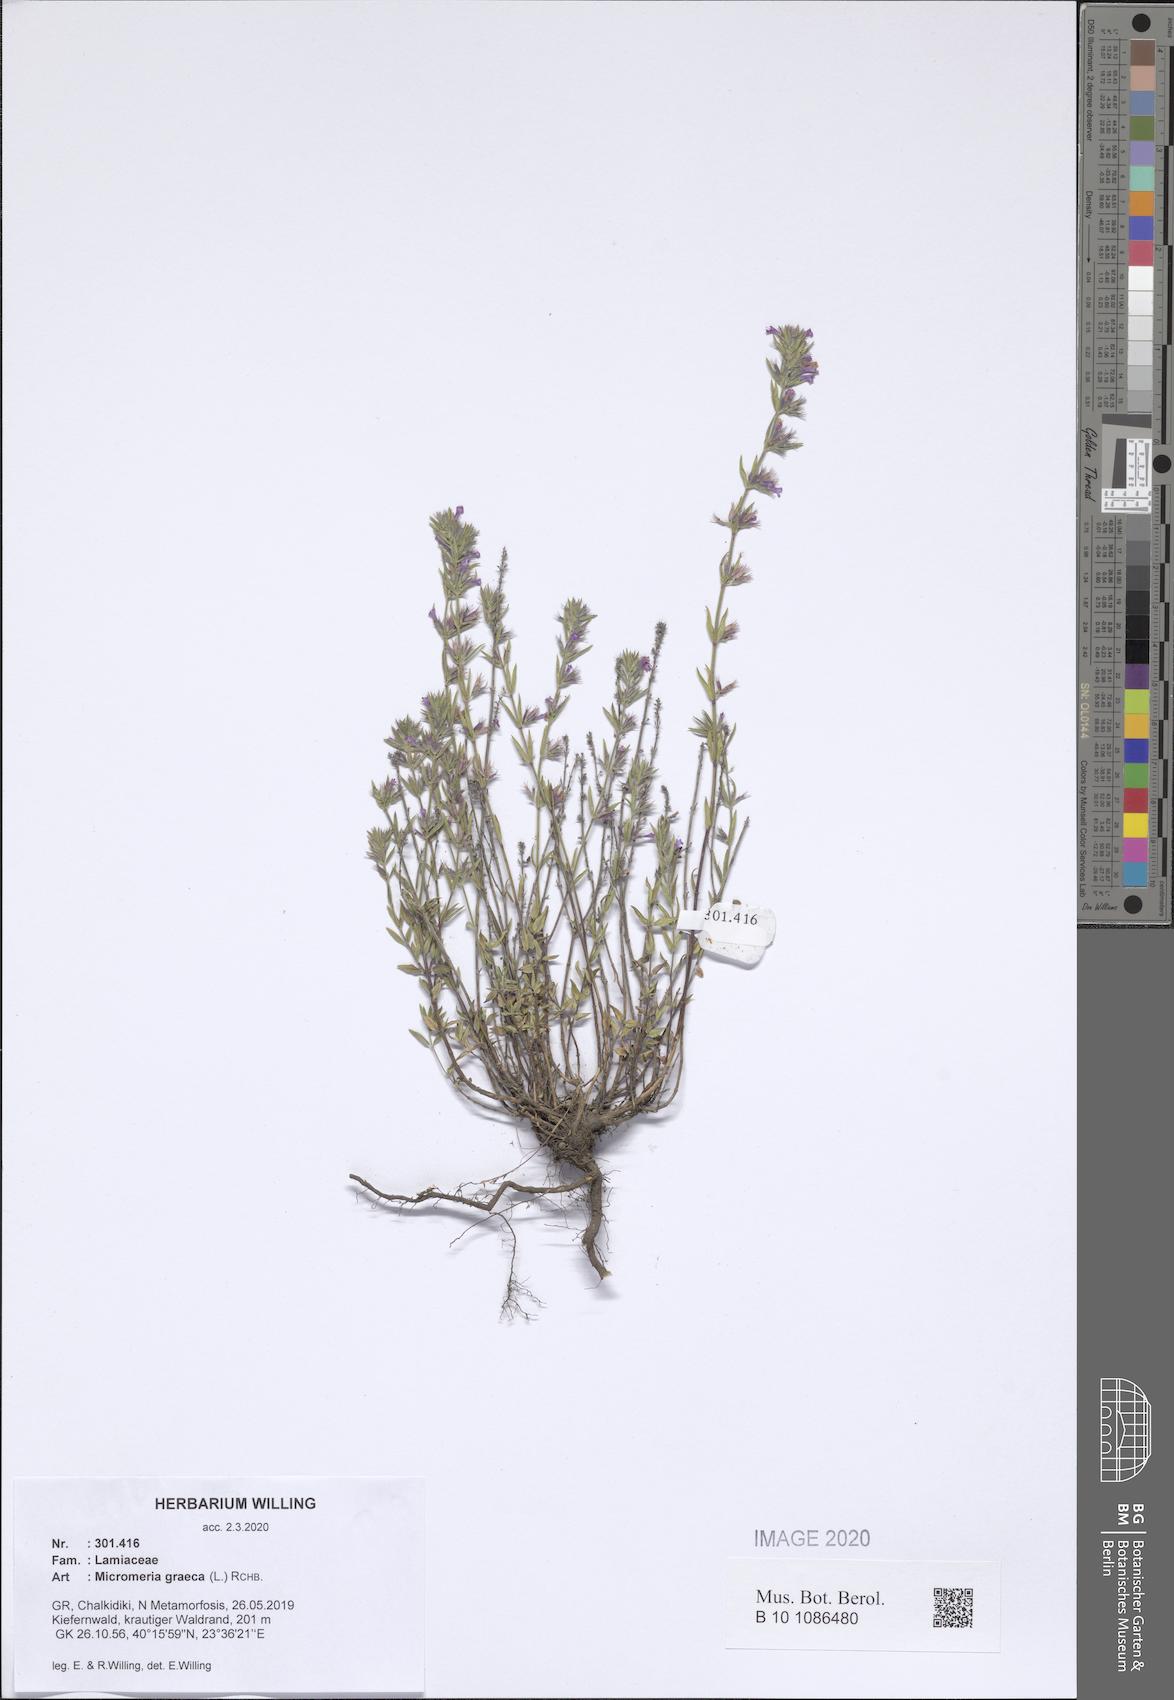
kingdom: Plantae
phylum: Tracheophyta
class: Magnoliopsida
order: Lamiales
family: Lamiaceae
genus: Micromeria
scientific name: Micromeria graeca
